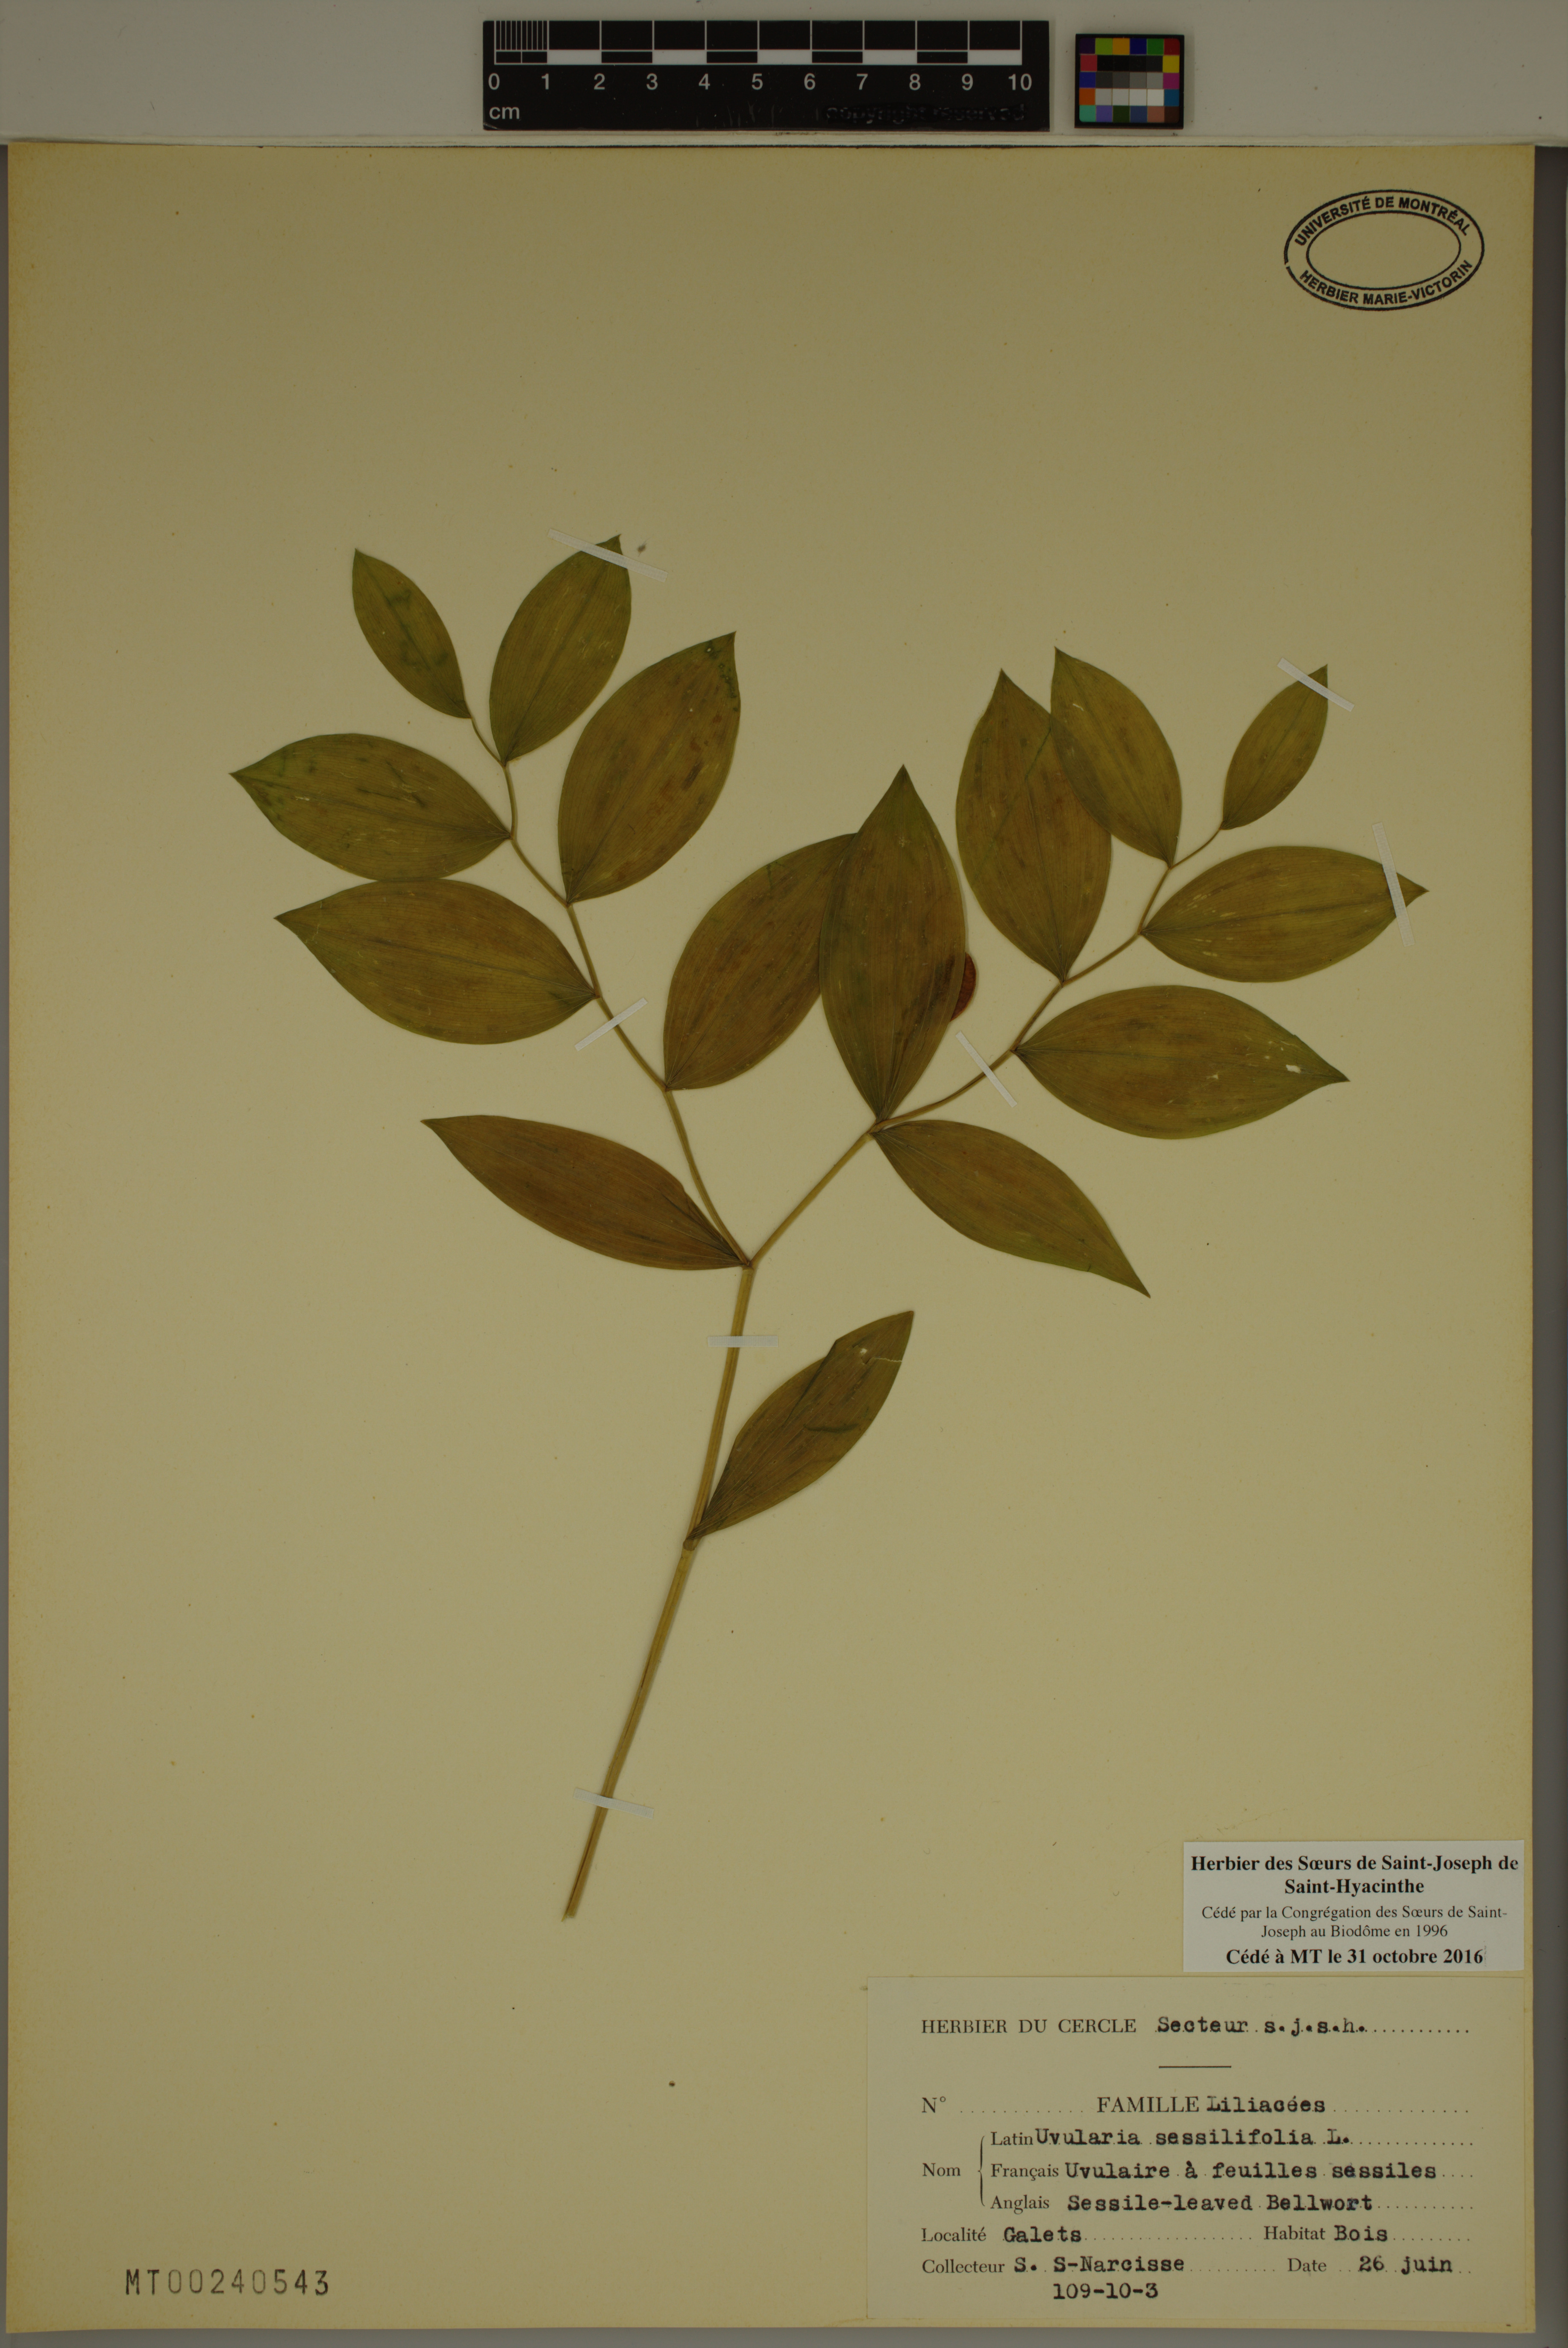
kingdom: Plantae
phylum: Tracheophyta
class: Liliopsida
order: Liliales
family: Colchicaceae
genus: Uvularia
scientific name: Uvularia sessilifolia
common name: Straw-lily
